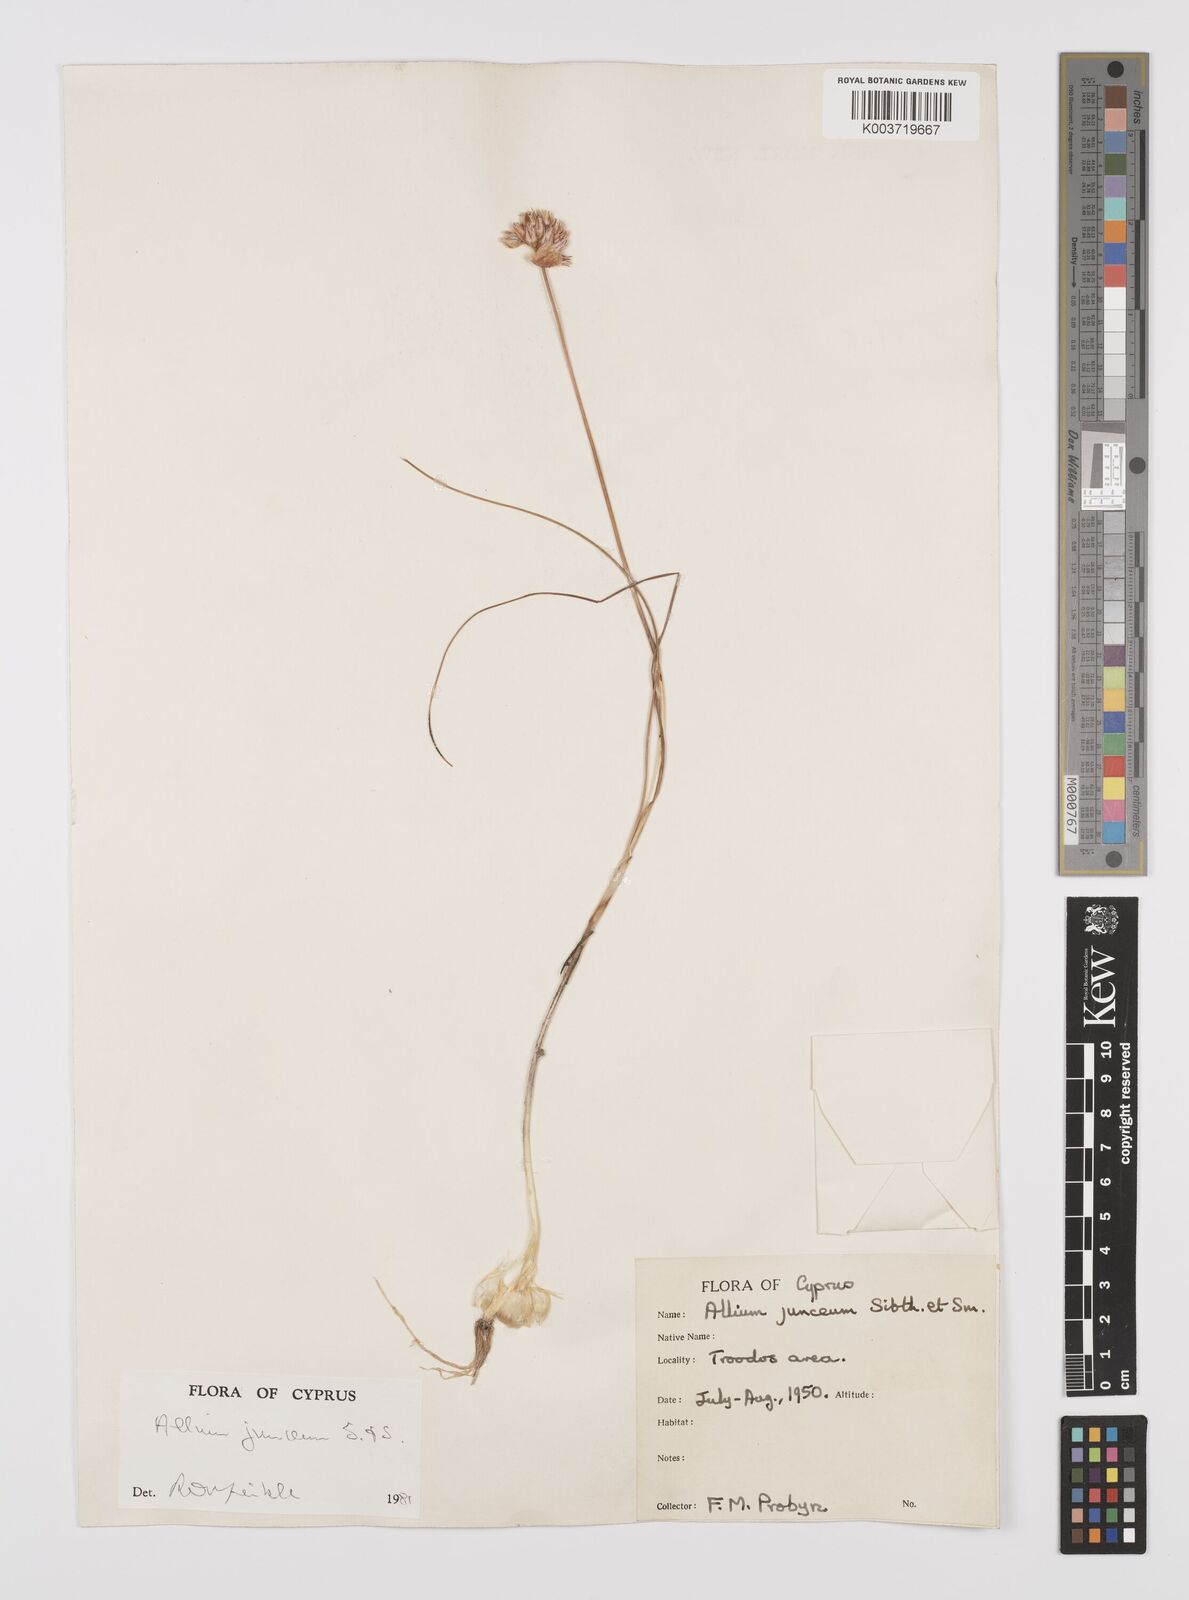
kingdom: Plantae
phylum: Tracheophyta
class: Liliopsida
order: Asparagales
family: Amaryllidaceae
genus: Allium
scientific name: Allium junceum
